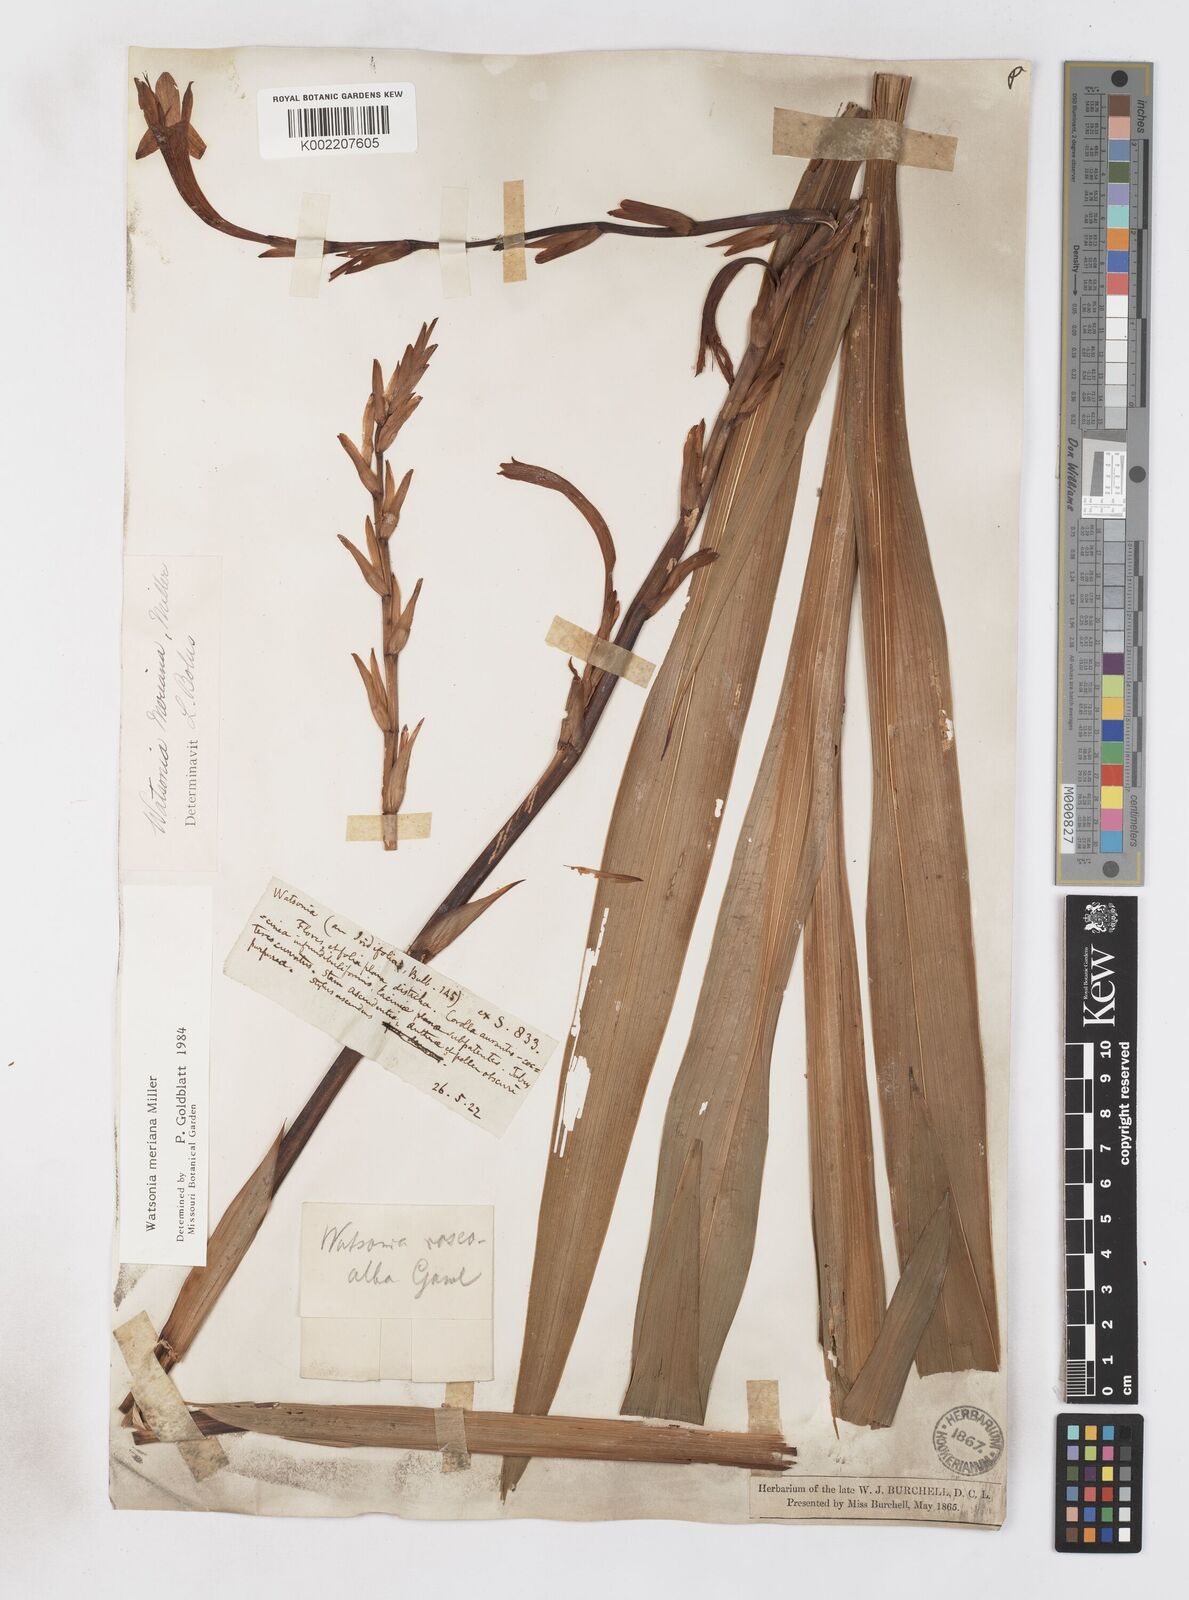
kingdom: Plantae
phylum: Tracheophyta
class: Liliopsida
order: Asparagales
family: Iridaceae
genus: Watsonia
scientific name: Watsonia meriana
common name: Bulbil bugle-lily
